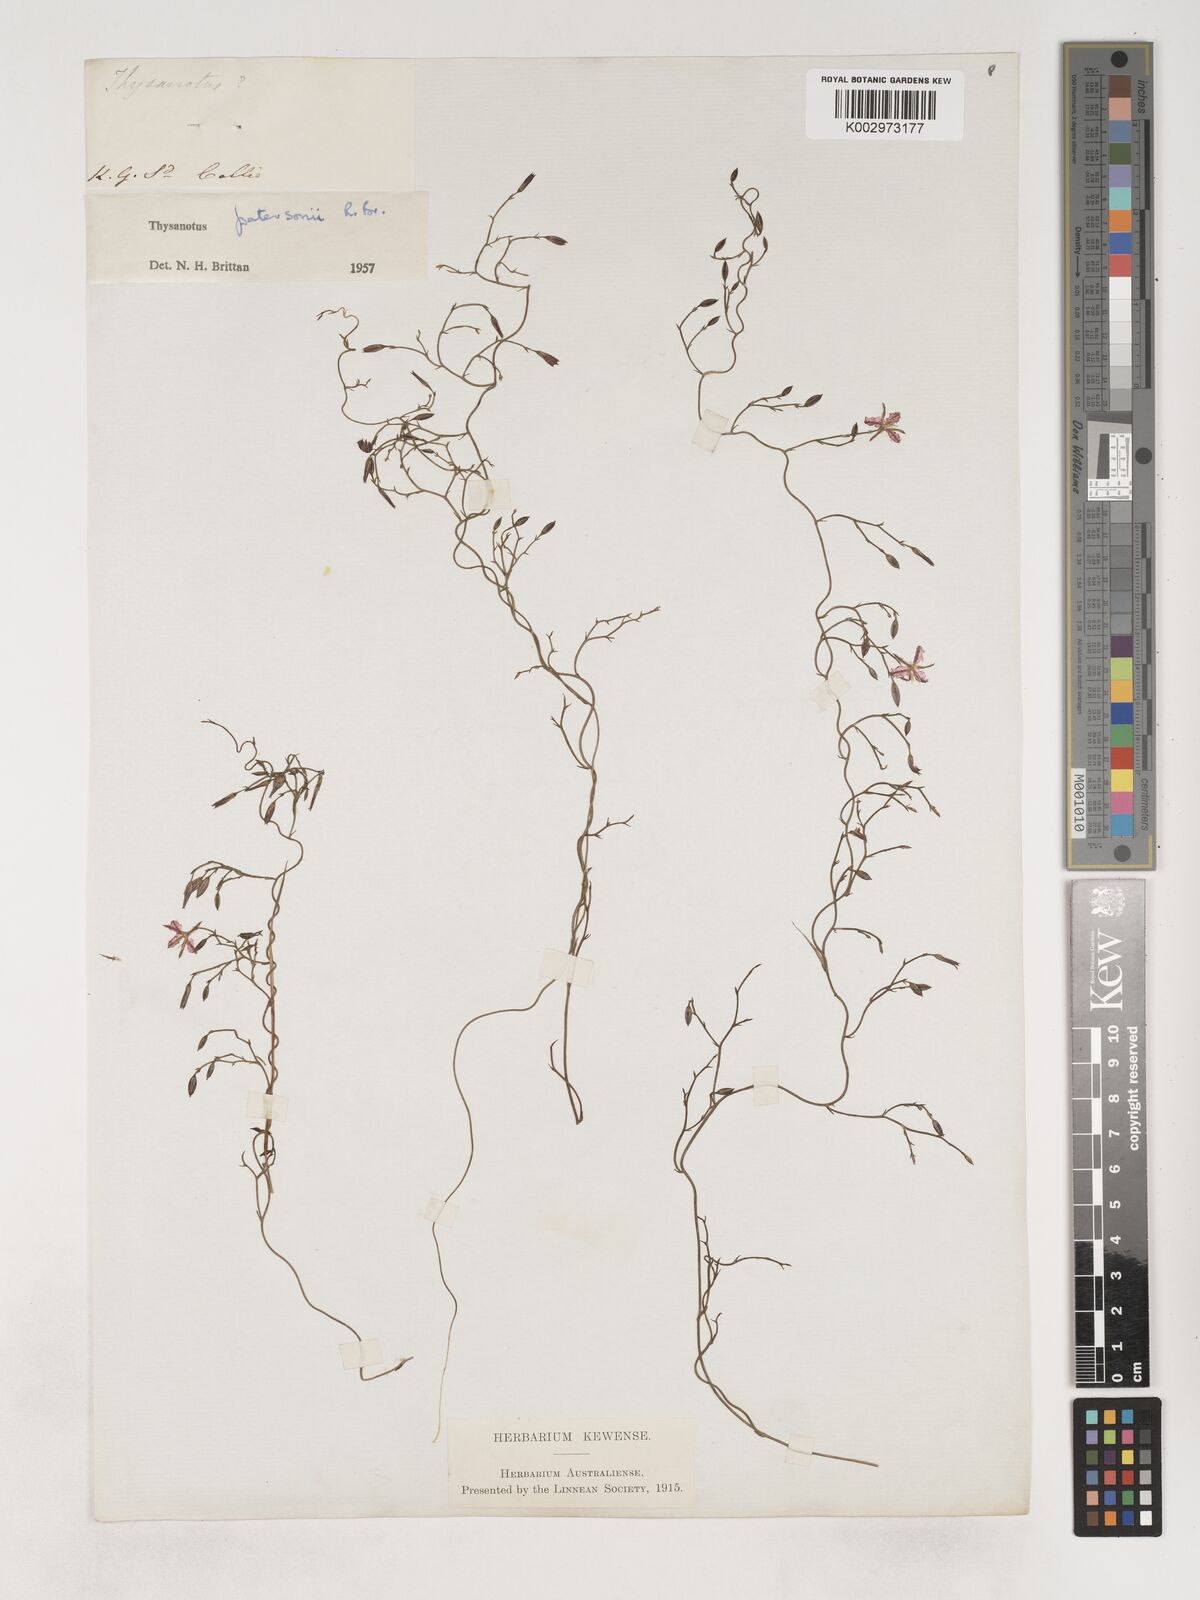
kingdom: Plantae
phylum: Tracheophyta
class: Liliopsida
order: Asparagales
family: Asparagaceae
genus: Thysanotus
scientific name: Thysanotus patersonii
